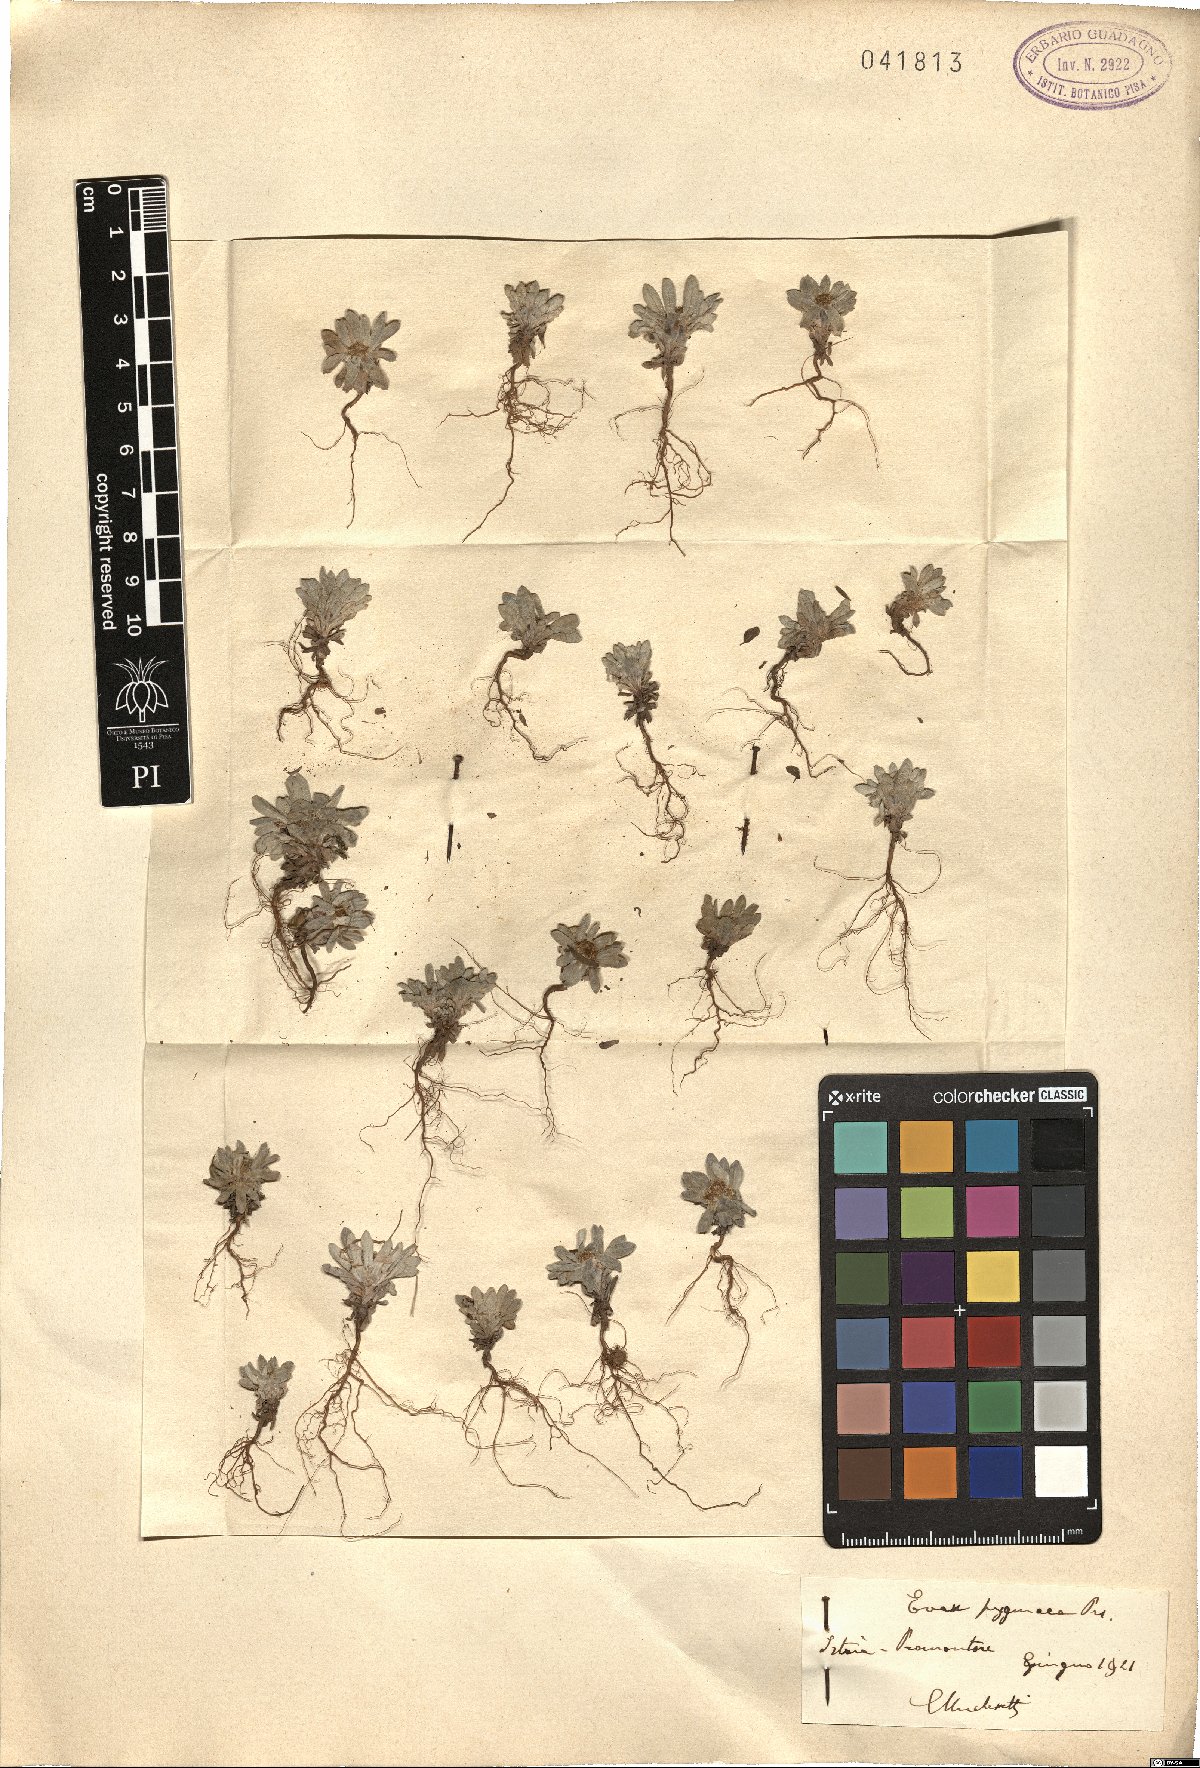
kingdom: Plantae
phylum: Tracheophyta
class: Magnoliopsida
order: Asterales
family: Asteraceae
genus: Filago
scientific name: Filago pygmaea
